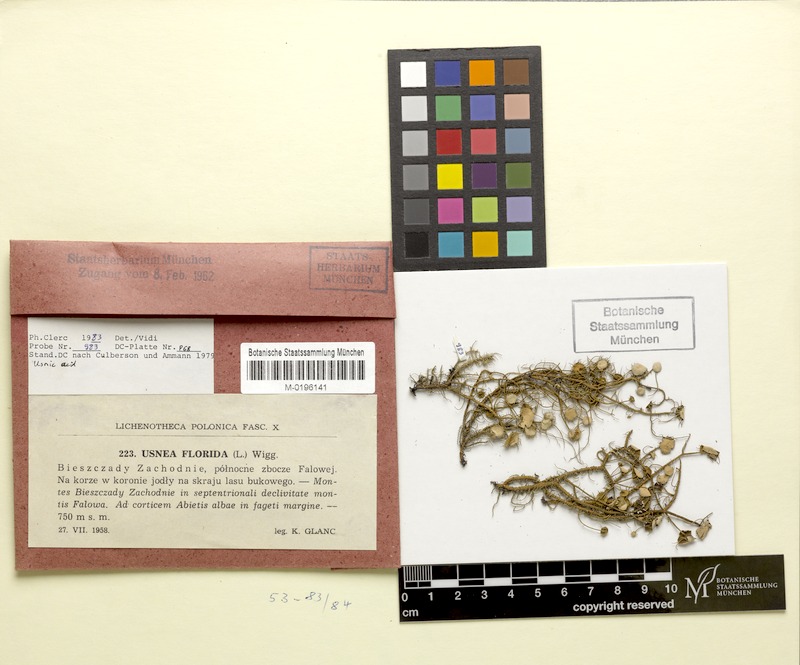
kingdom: Fungi
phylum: Ascomycota
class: Lecanoromycetes
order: Lecanorales
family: Parmeliaceae
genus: Usnea
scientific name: Usnea florida
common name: Witches' whiskers lichen
